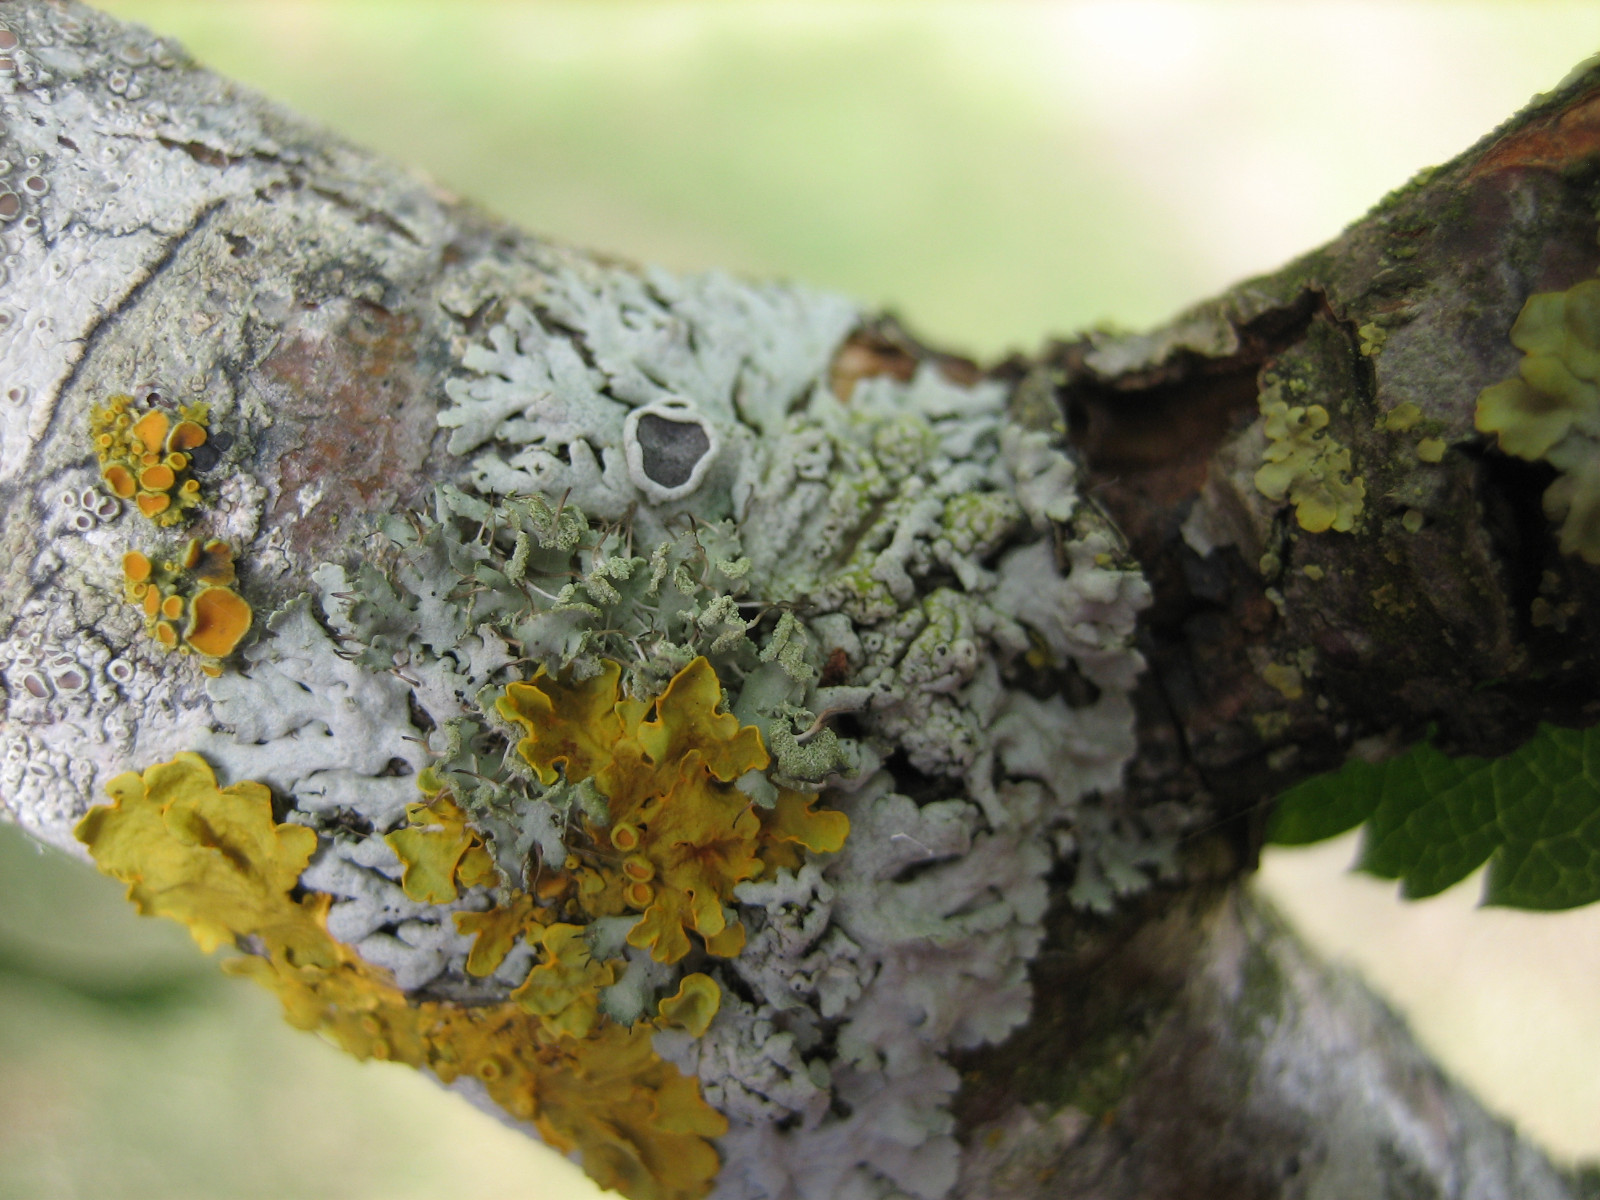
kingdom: Fungi
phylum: Ascomycota
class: Lecanoromycetes
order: Caliciales
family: Physciaceae
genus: Physcia
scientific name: Physcia stellaris
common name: stjerneformet rosetlav
